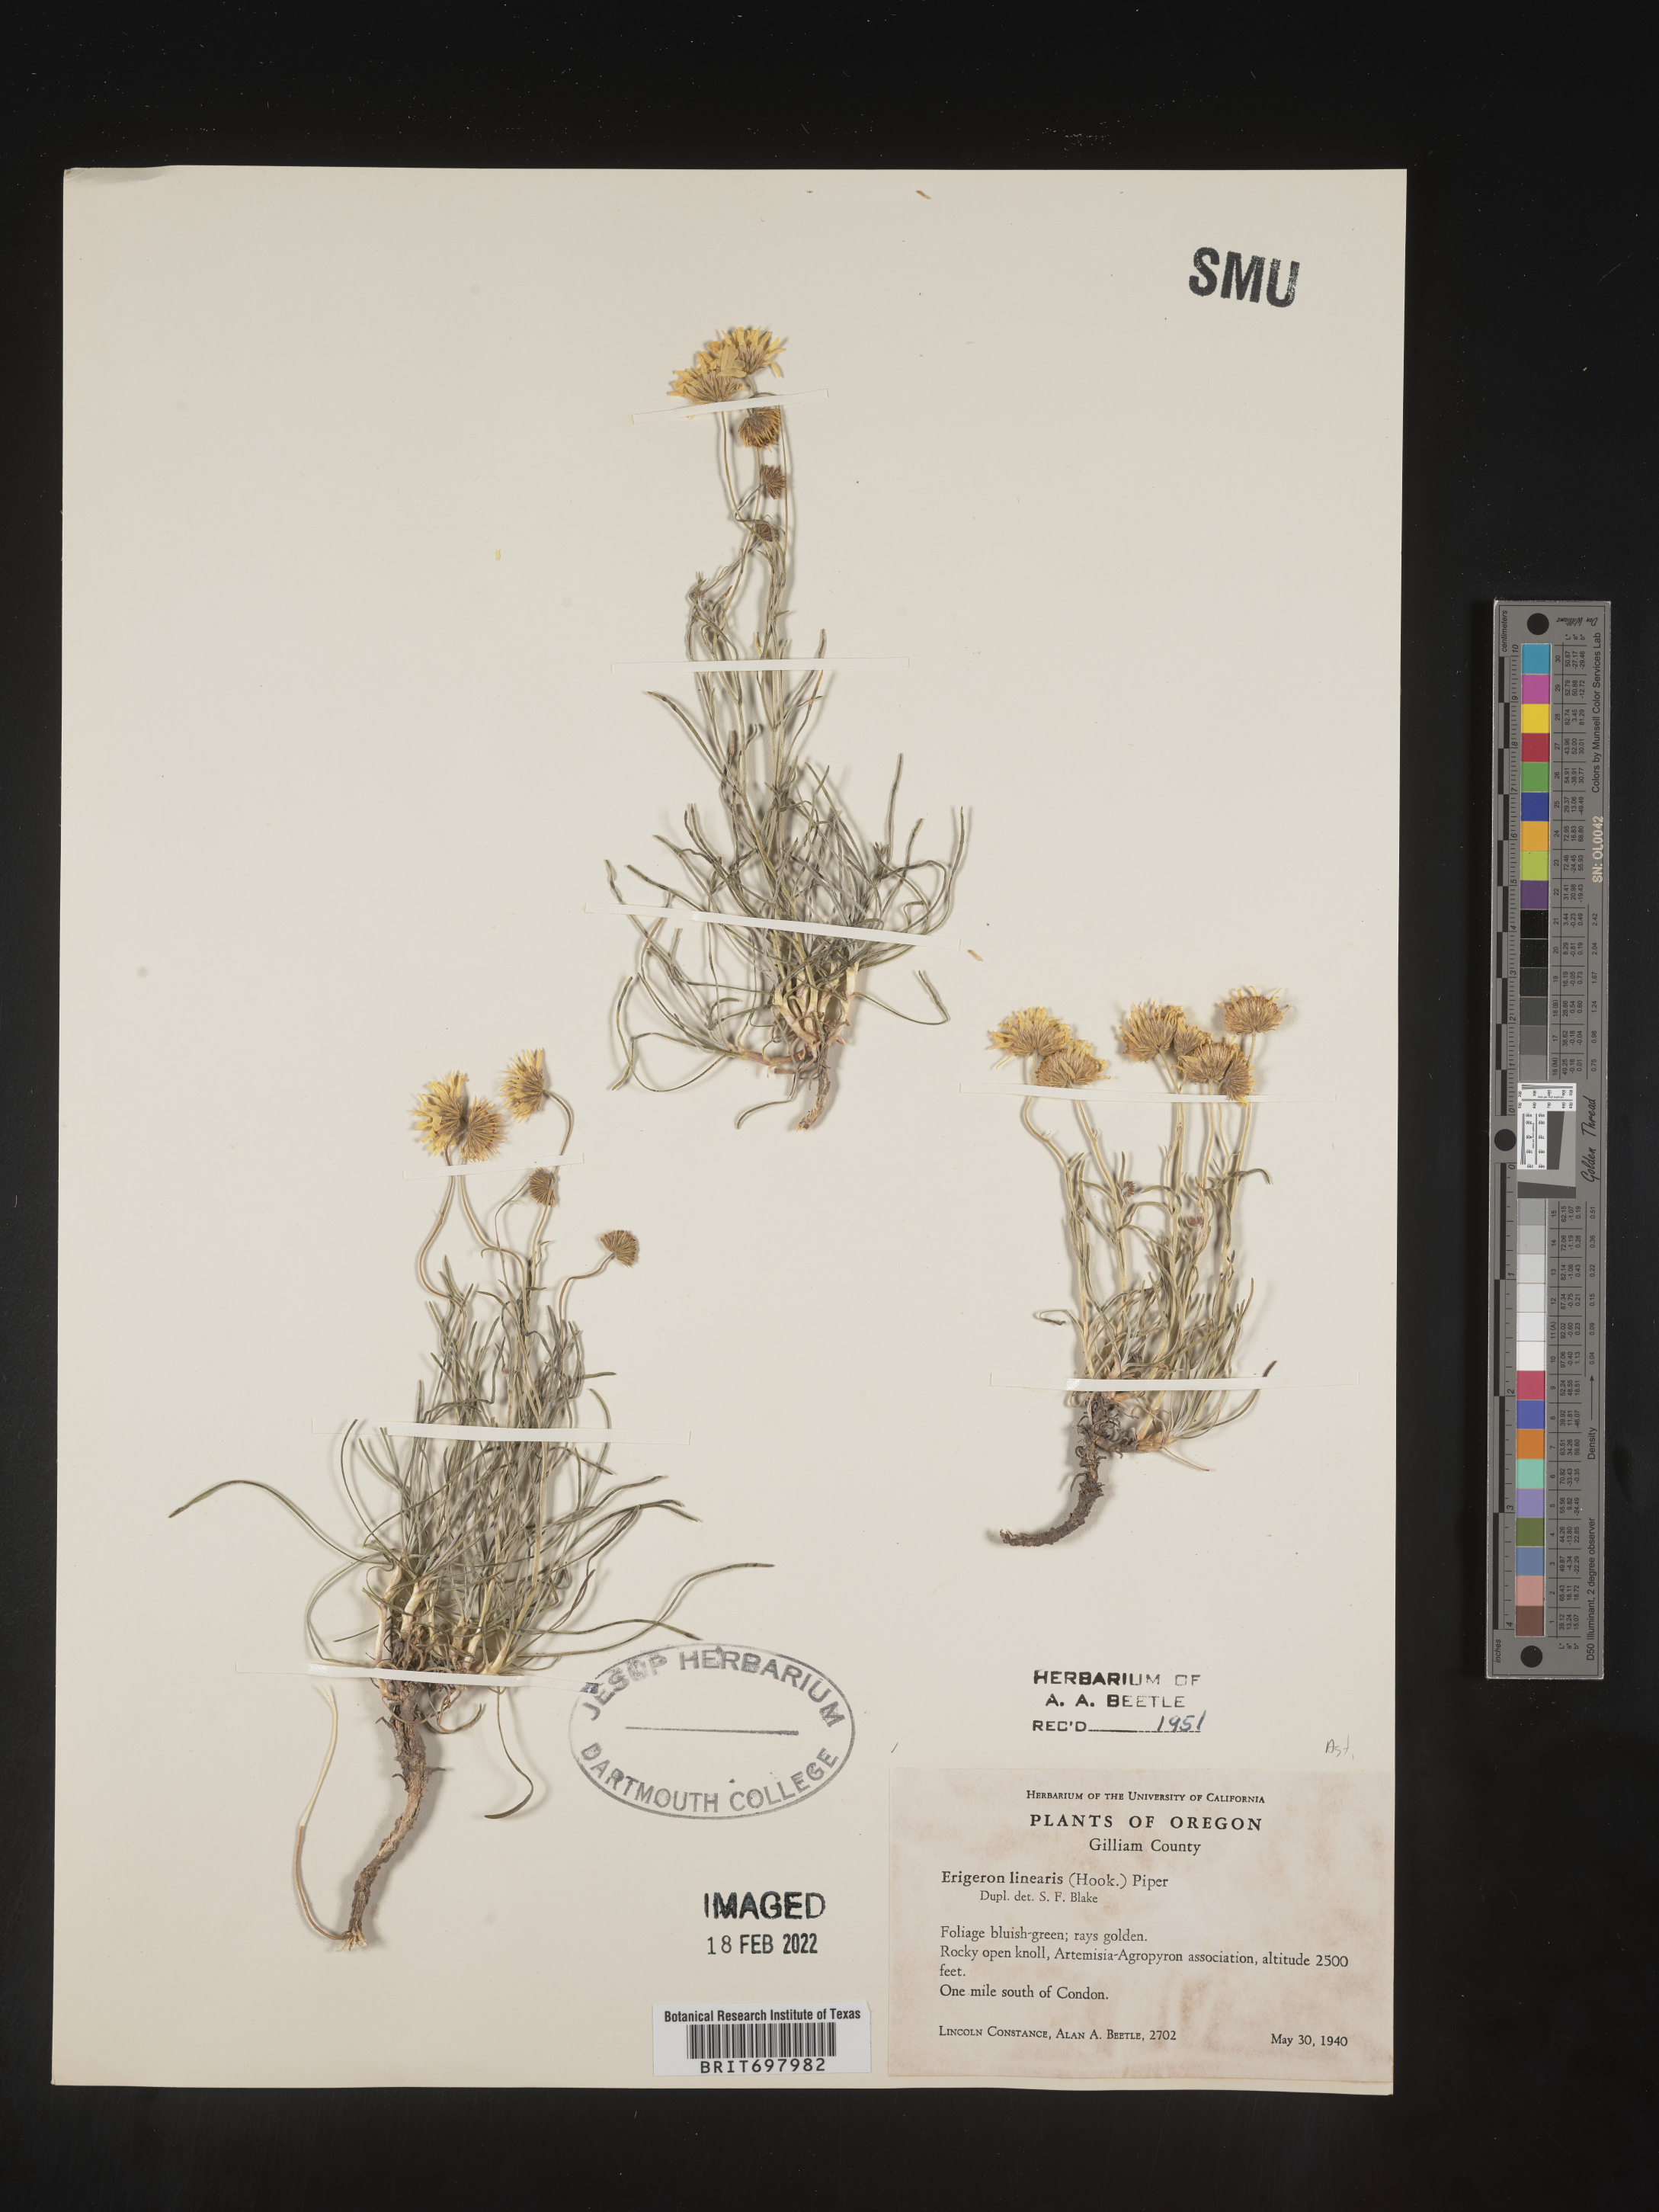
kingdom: Plantae
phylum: Tracheophyta
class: Magnoliopsida
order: Asterales
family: Asteraceae
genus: Erigeron
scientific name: Erigeron linearis
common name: Desert yellow fleabane
